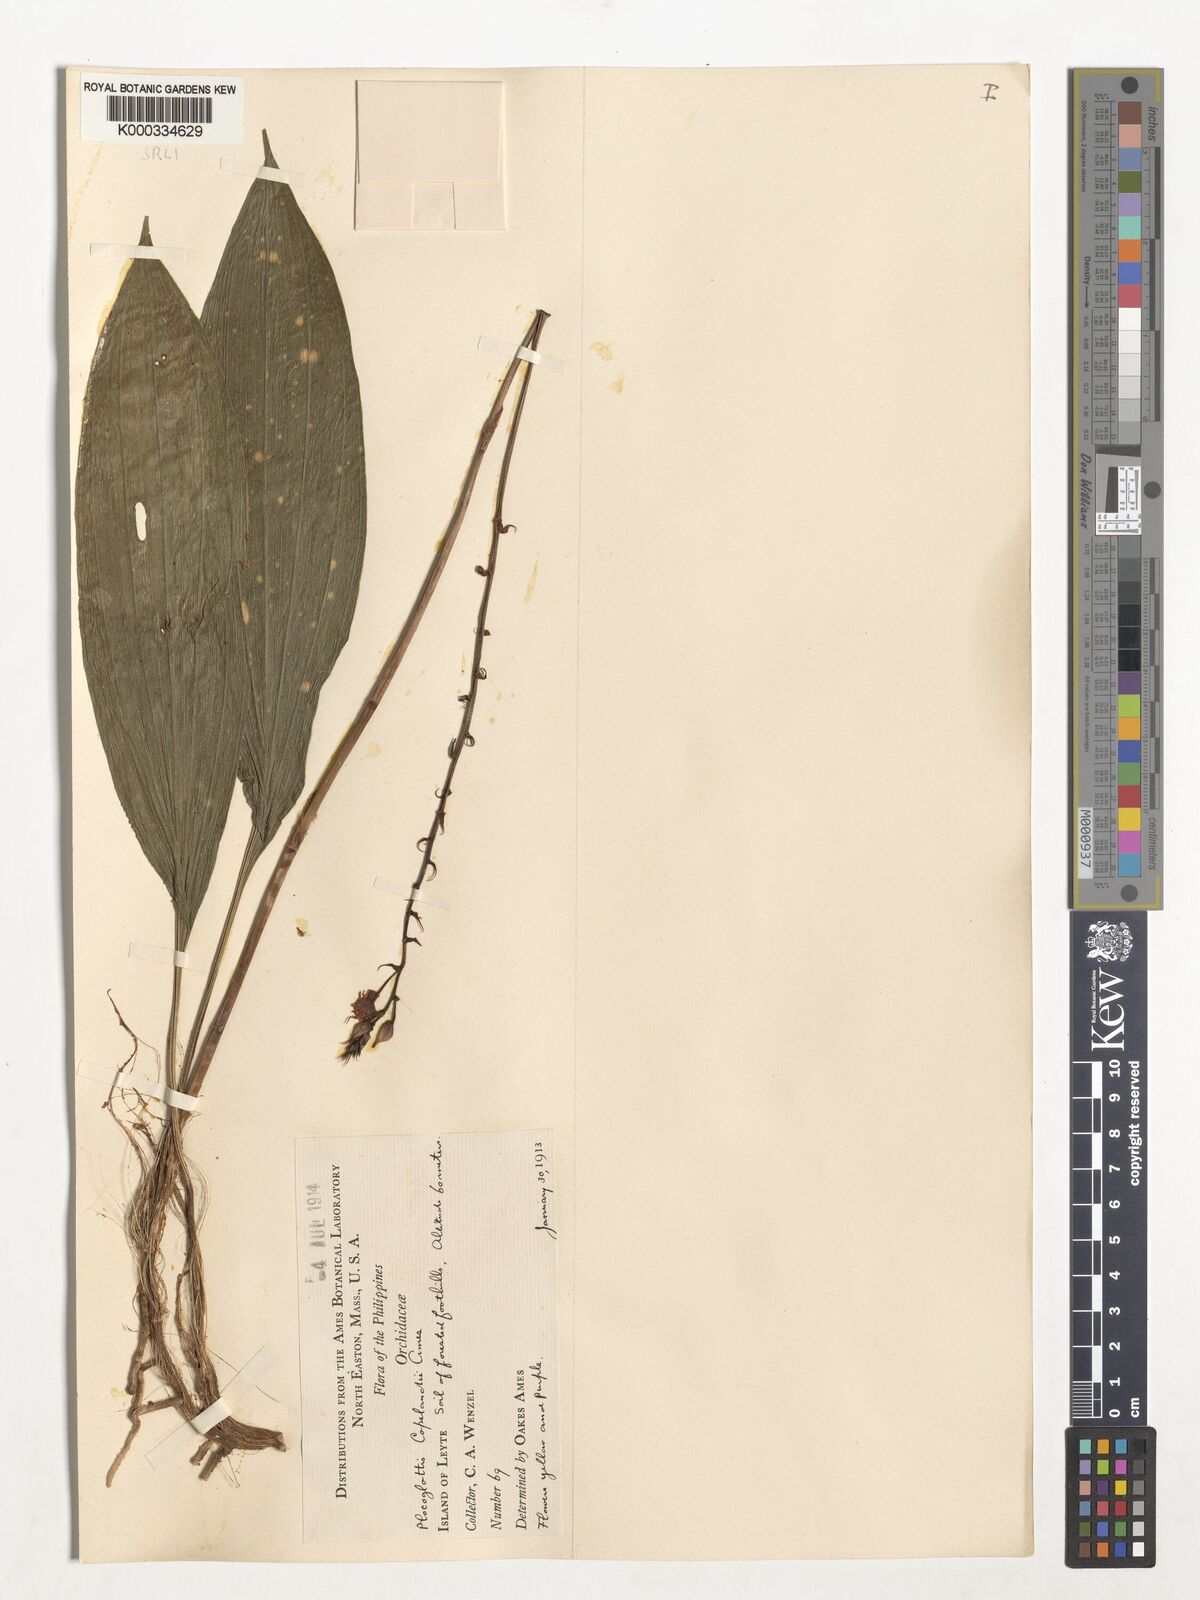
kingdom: Plantae
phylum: Tracheophyta
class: Liliopsida
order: Asparagales
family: Orchidaceae
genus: Plocoglottis
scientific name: Plocoglottis copelandii
